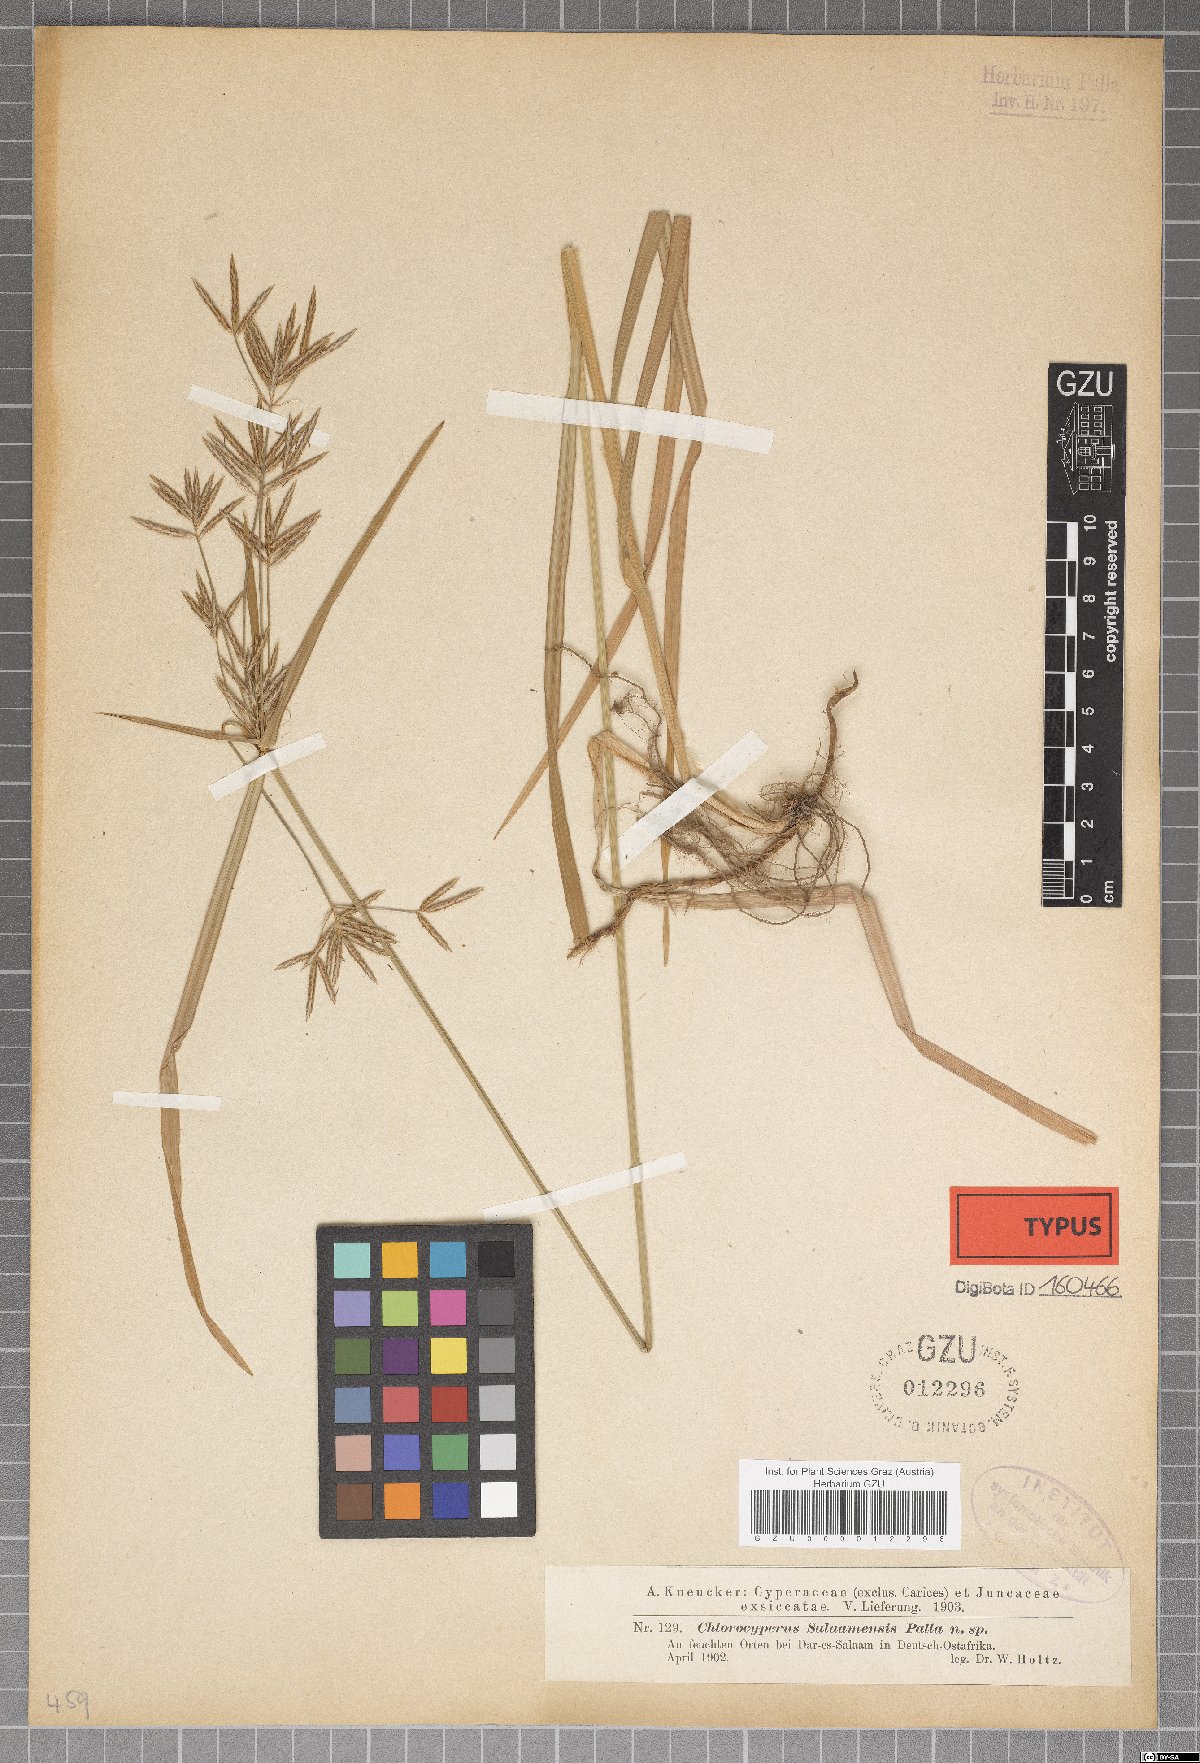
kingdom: Plantae
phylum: Tracheophyta
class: Liliopsida
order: Poales
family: Cyperaceae
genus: Cyperus
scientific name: Cyperus tuberosus
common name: Nut grass
